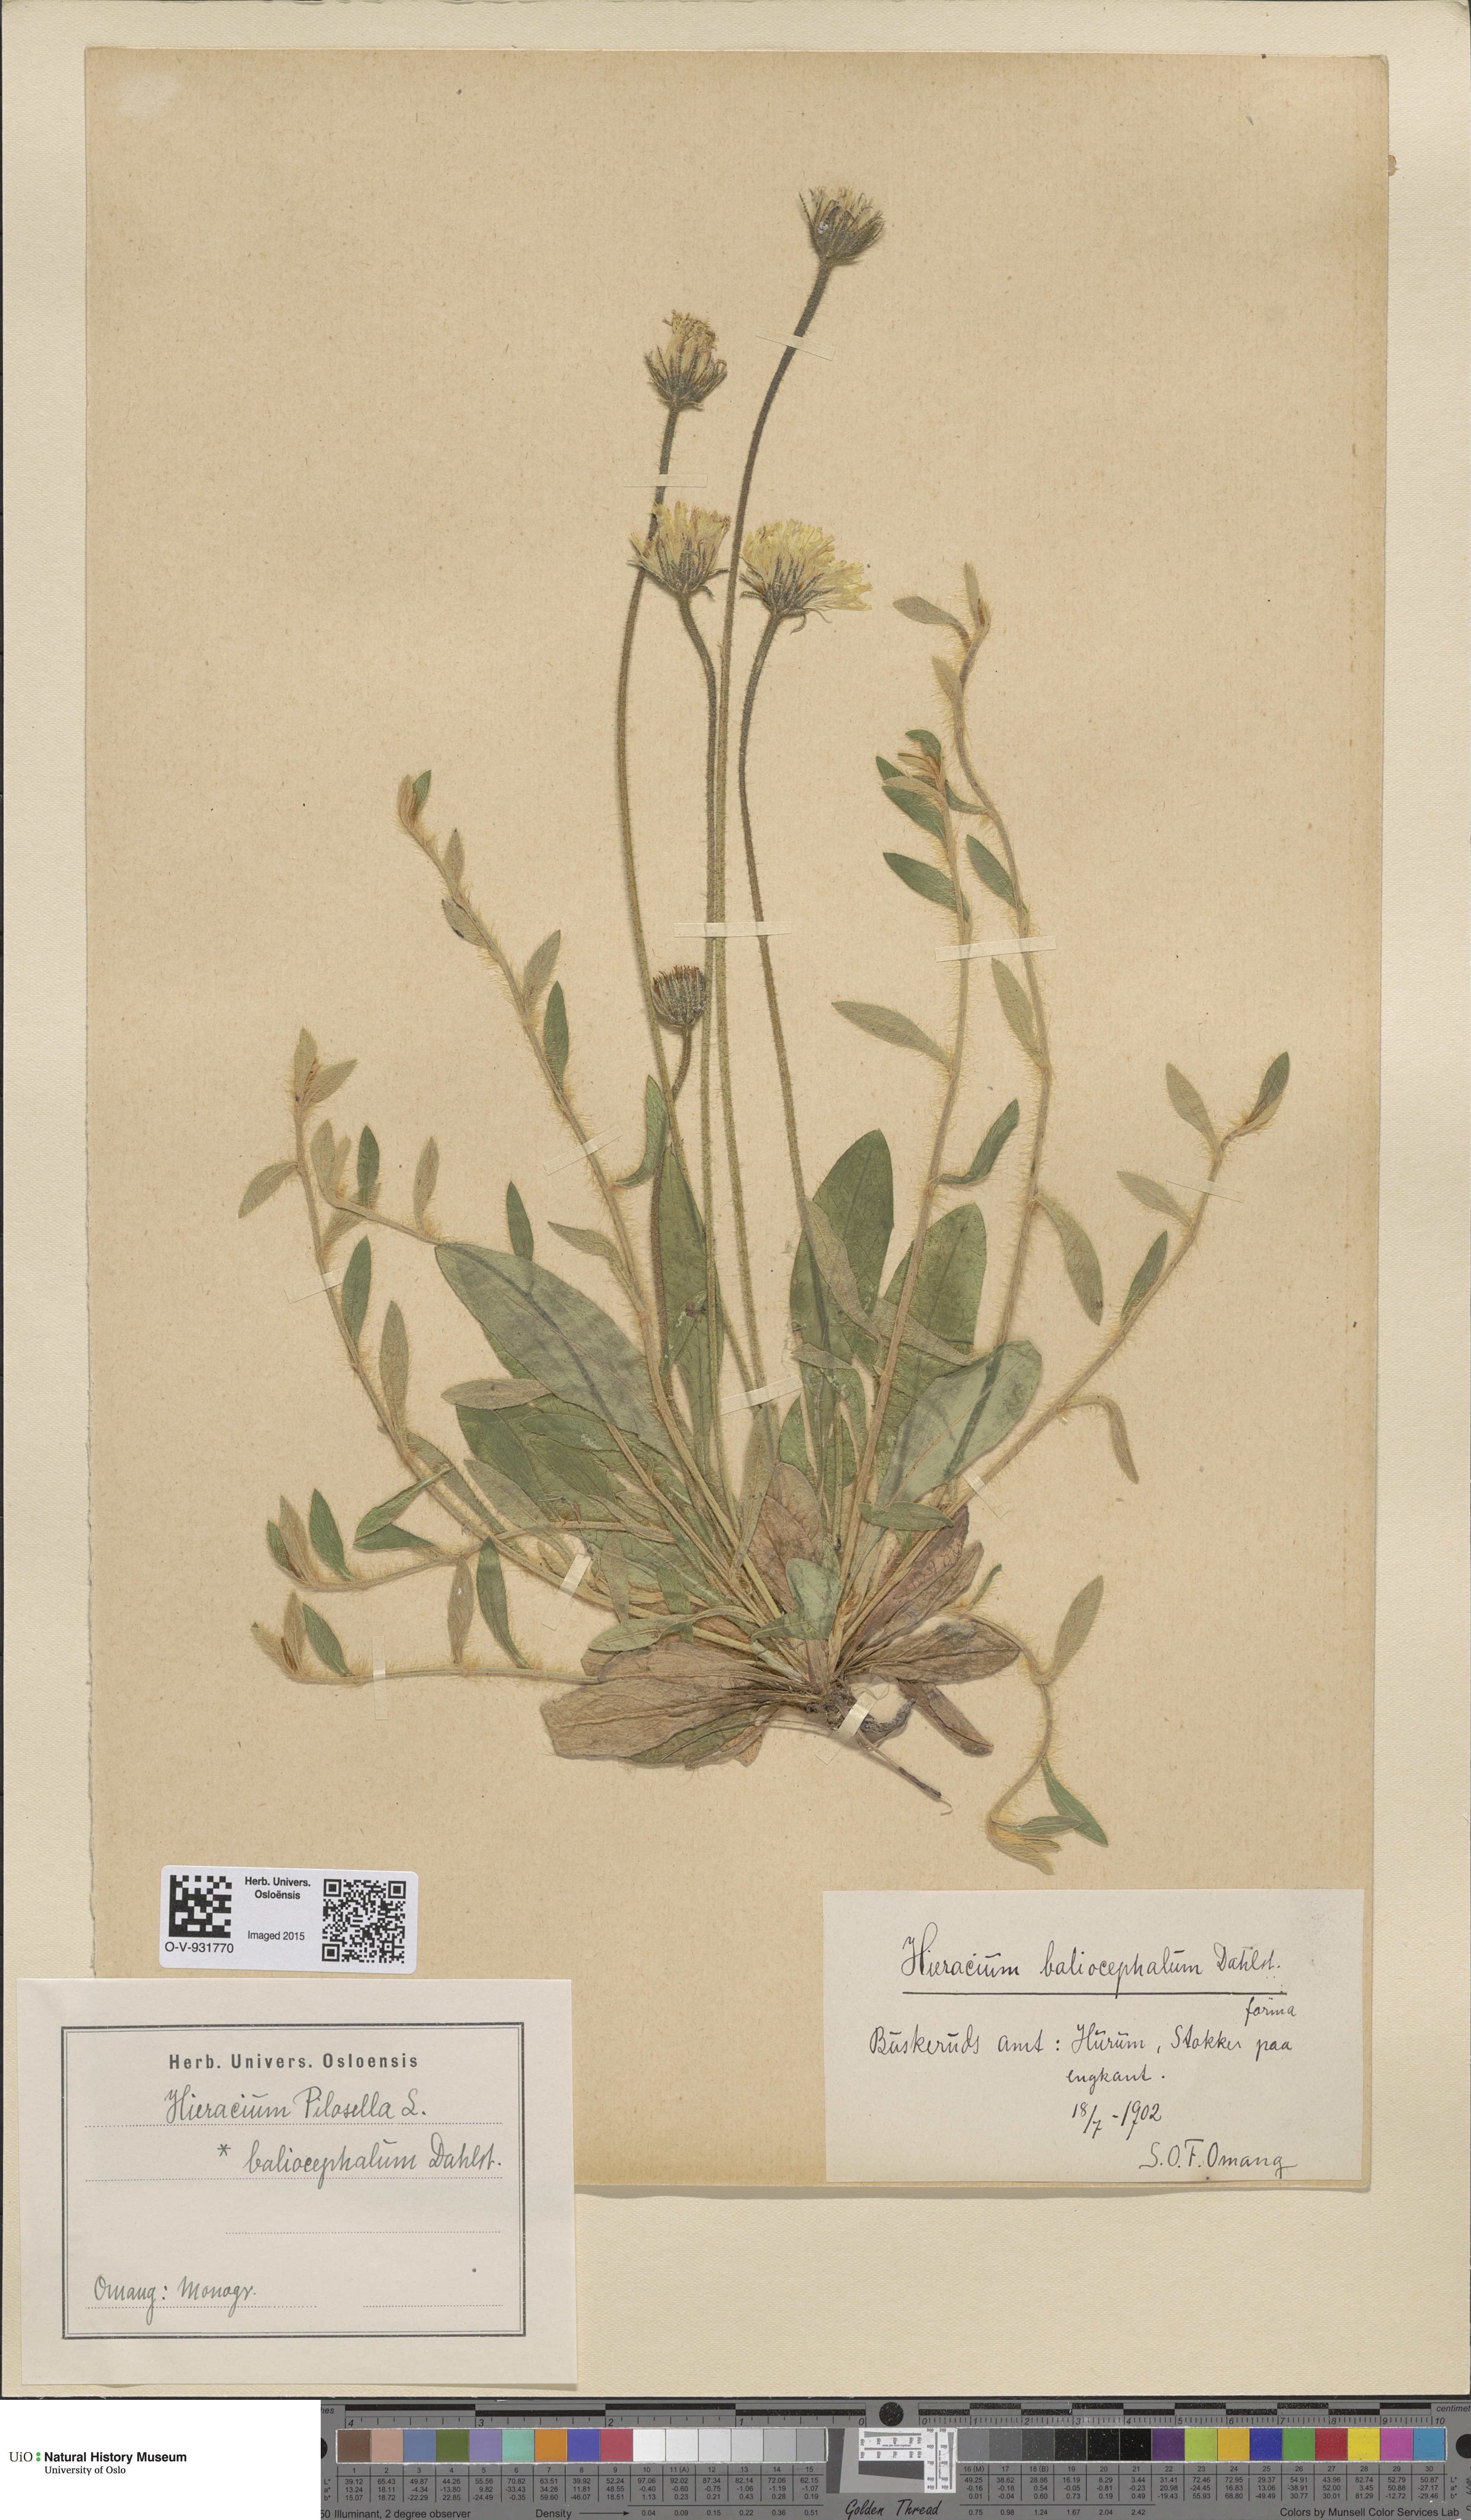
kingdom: Plantae
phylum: Tracheophyta
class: Magnoliopsida
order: Asterales
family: Asteraceae
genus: Pilosella
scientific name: Pilosella officinarum
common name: Mouse-ear hawkweed
